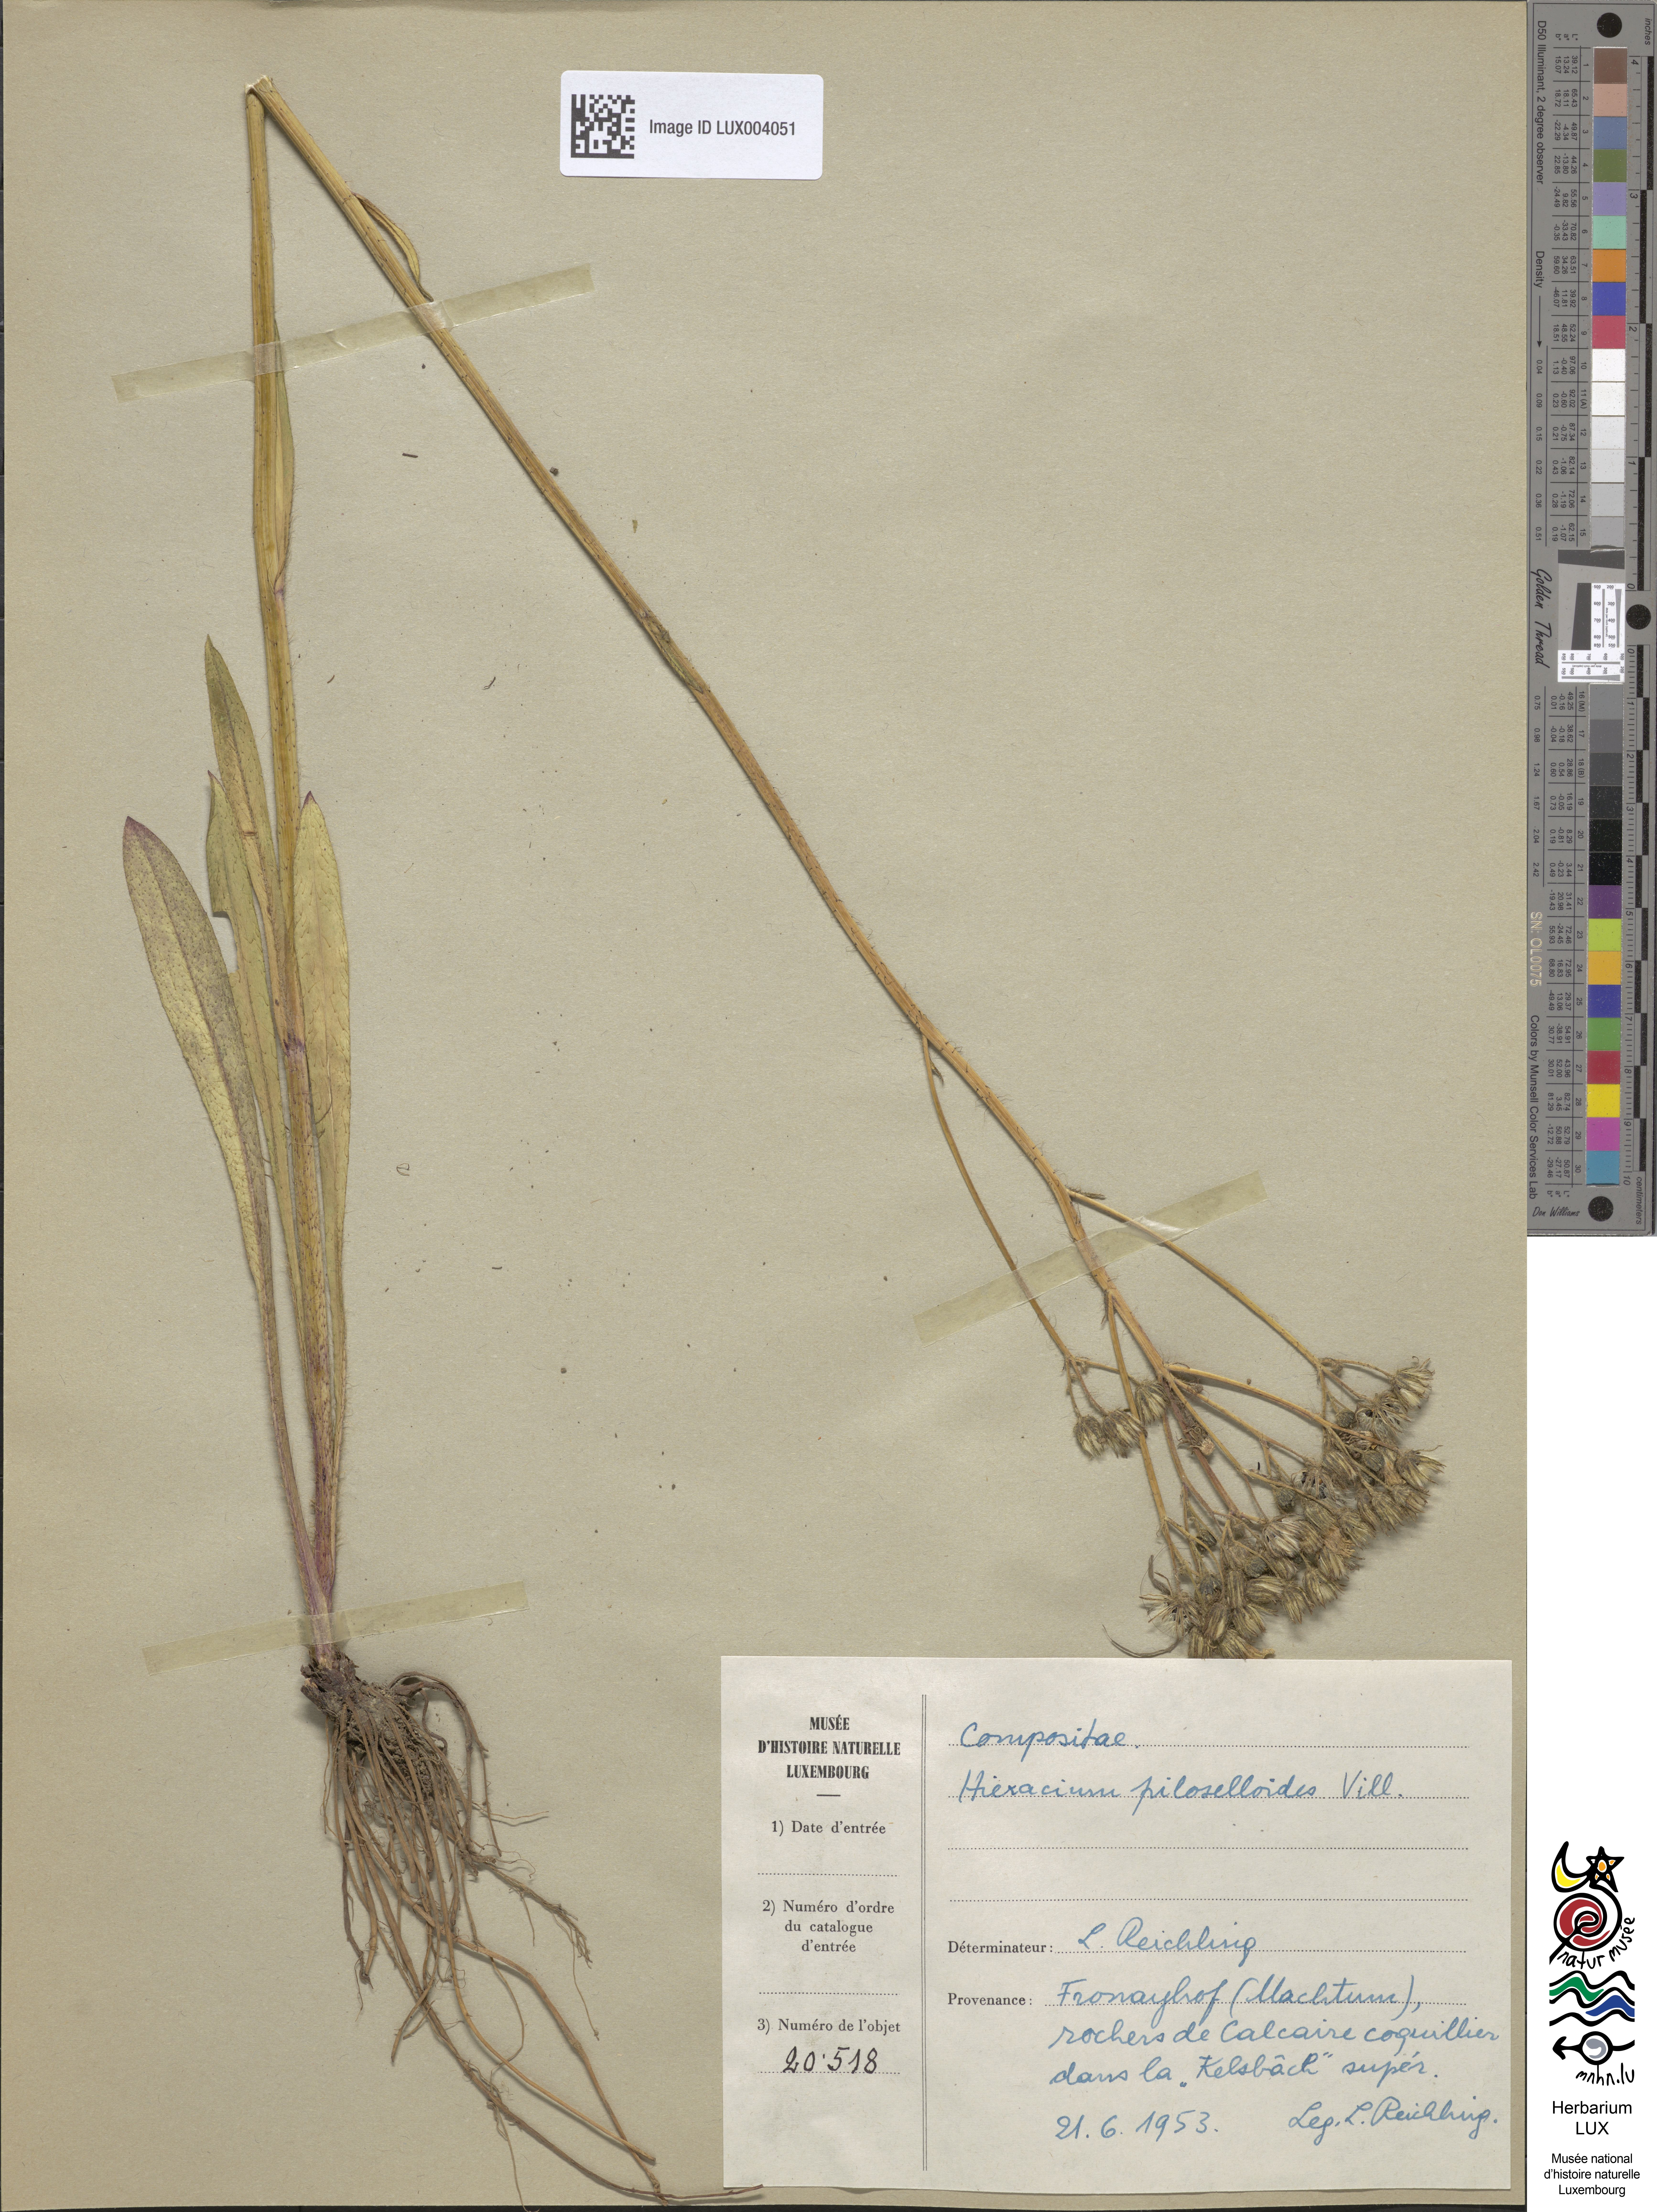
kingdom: Plantae
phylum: Tracheophyta
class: Magnoliopsida
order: Asterales
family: Asteraceae
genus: Pilosella
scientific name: Pilosella piloselloides
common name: Glaucous king-devil
